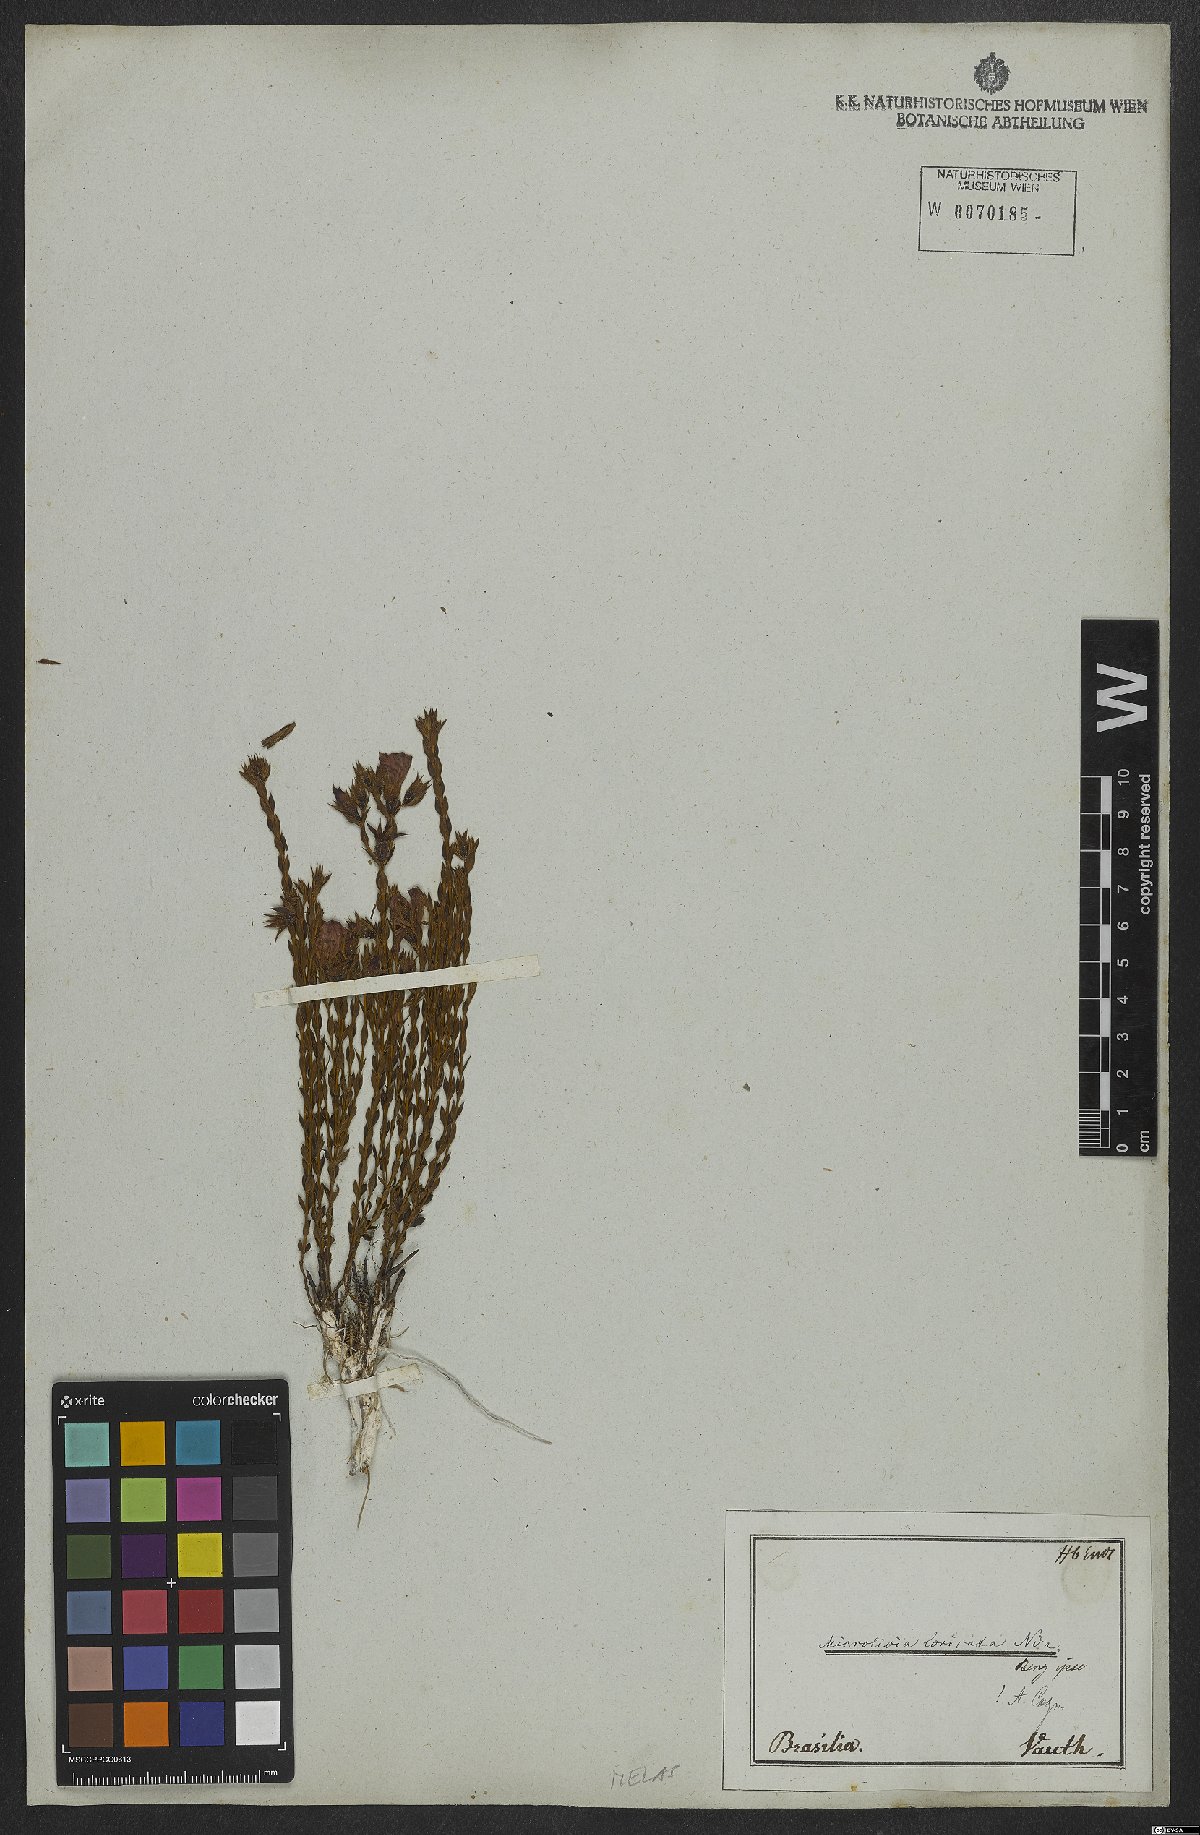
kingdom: Plantae
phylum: Tracheophyta
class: Magnoliopsida
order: Myrtales
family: Melastomataceae
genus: Microlicia
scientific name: Microlicia viminalis
